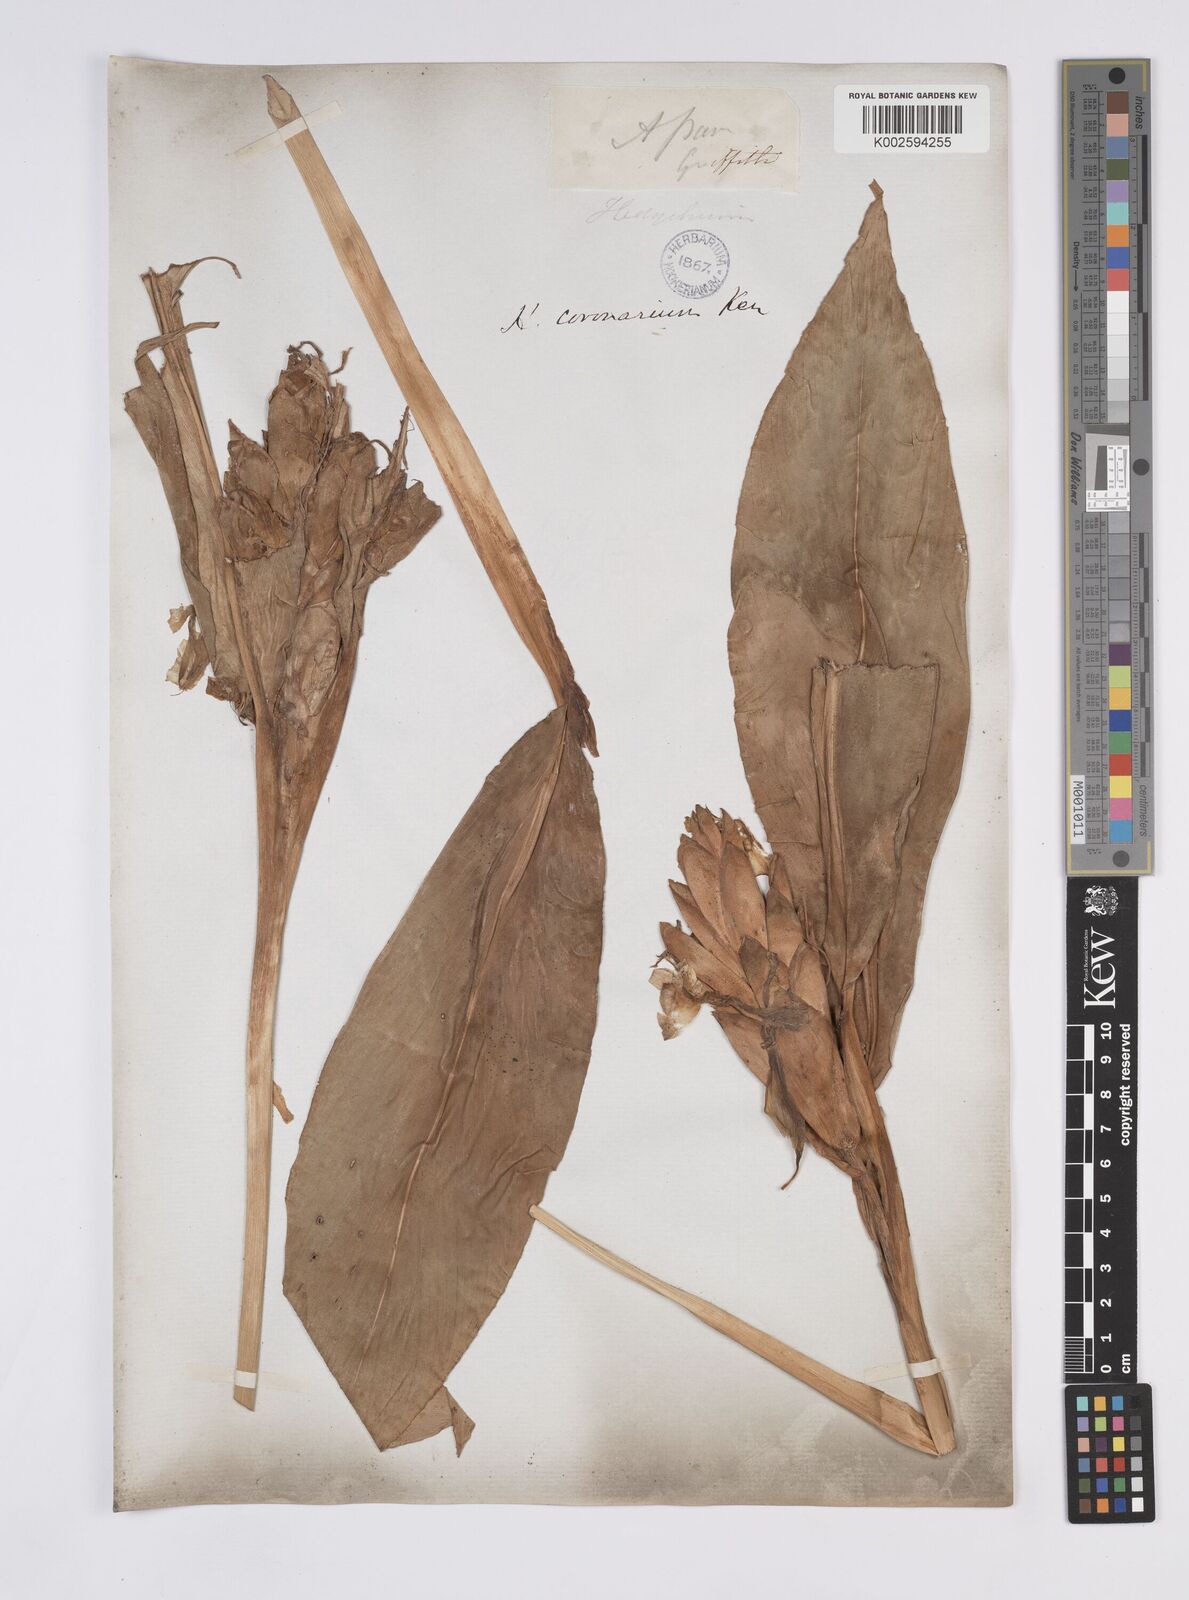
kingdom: Plantae
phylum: Tracheophyta
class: Liliopsida
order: Zingiberales
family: Zingiberaceae
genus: Hedychium
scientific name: Hedychium coronarium
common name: White garland-lily
